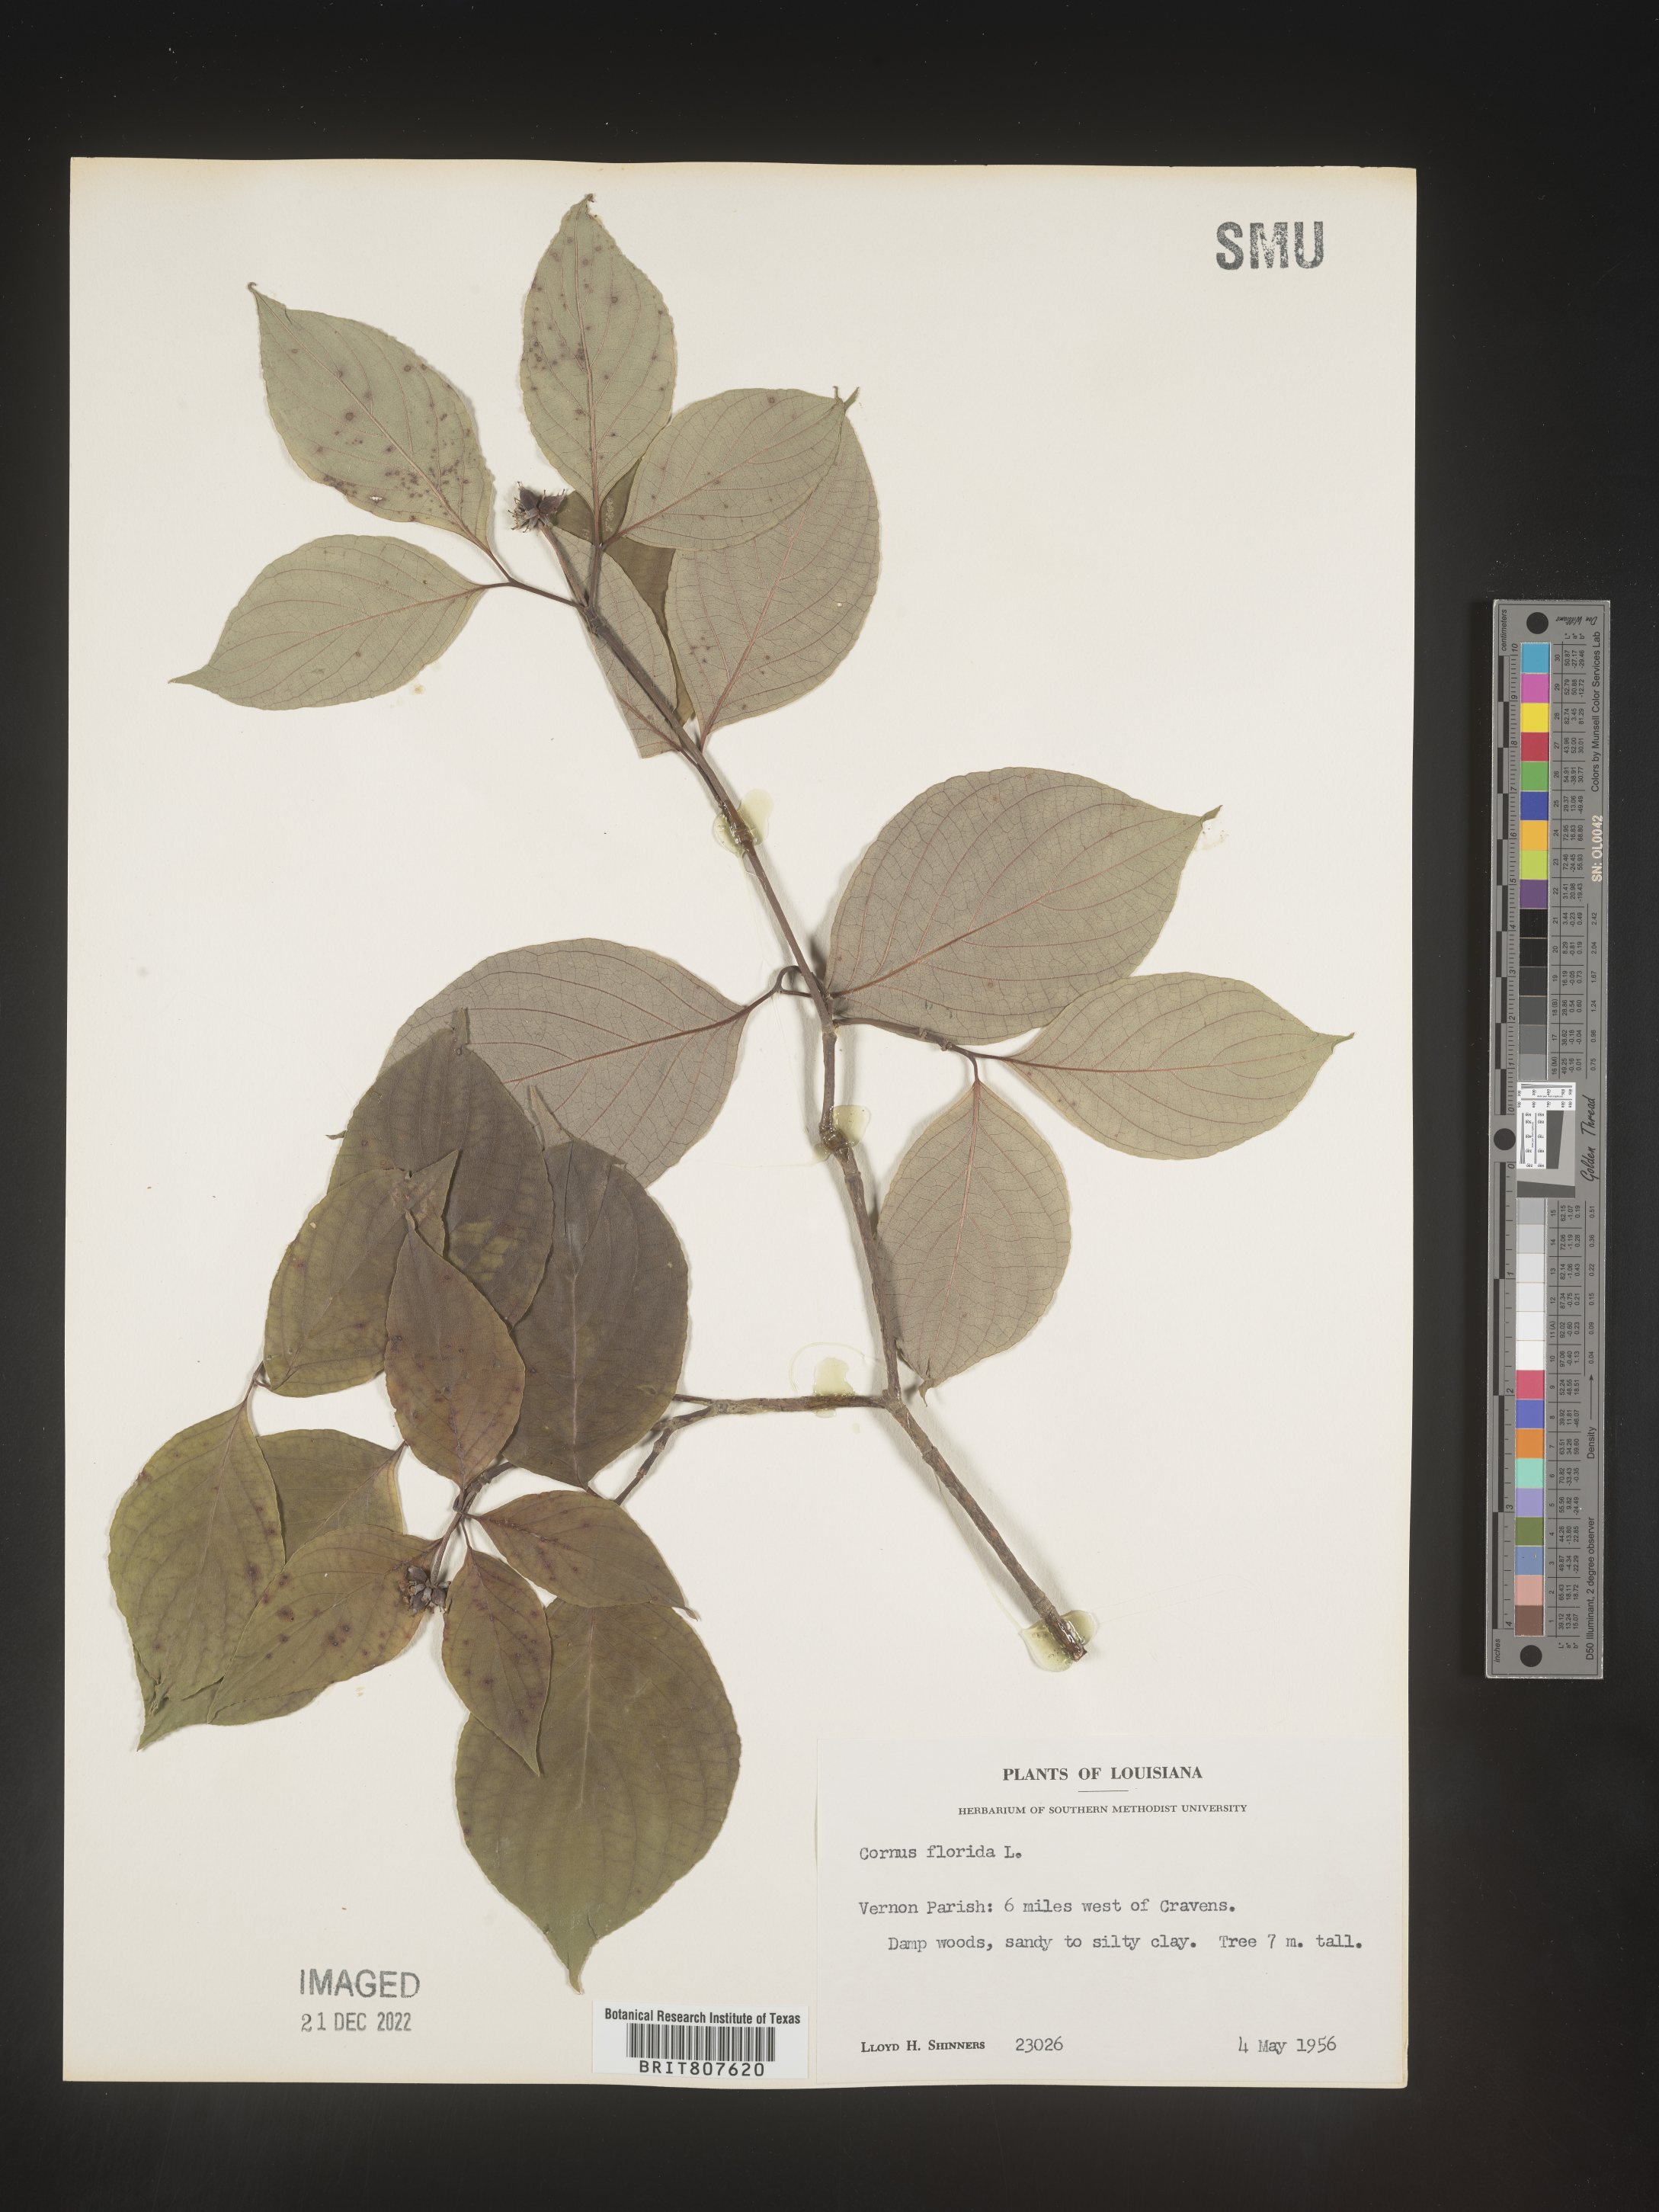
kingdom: Plantae
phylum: Tracheophyta
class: Magnoliopsida
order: Cornales
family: Cornaceae
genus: Cornus
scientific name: Cornus florida
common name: Flowering dogwood
